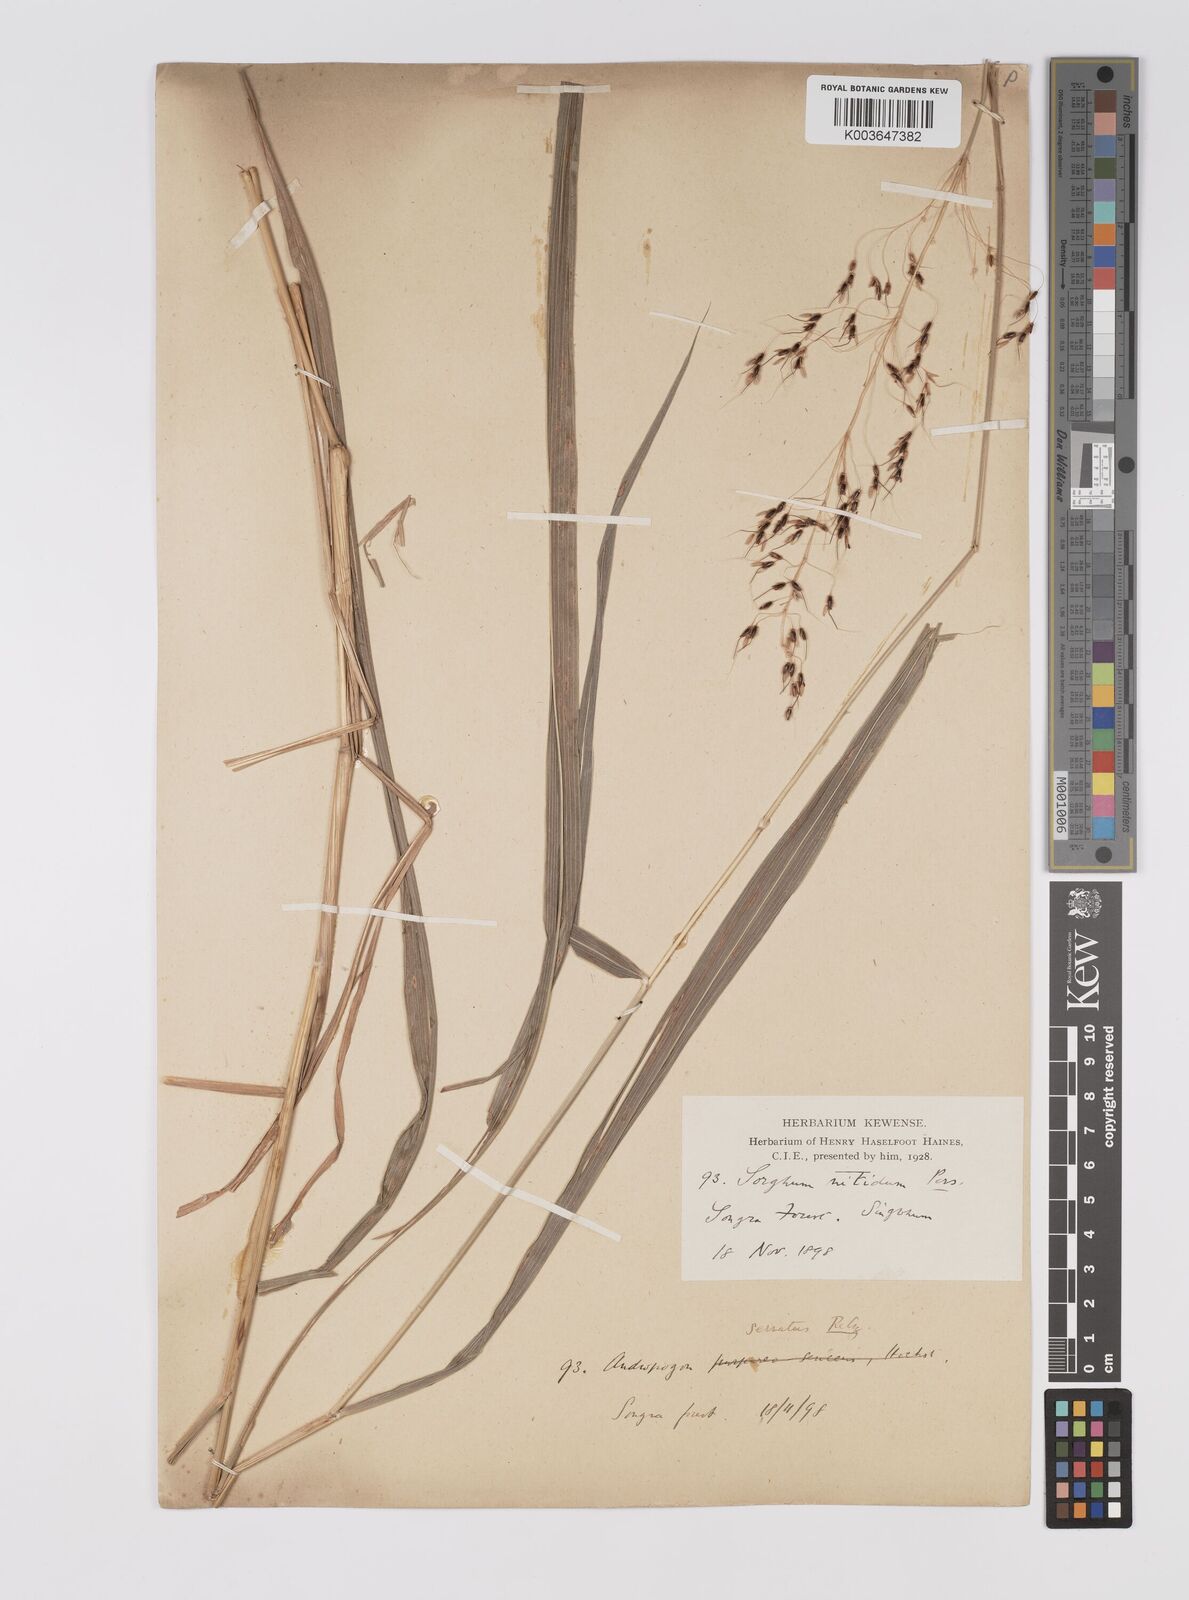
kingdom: Plantae
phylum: Tracheophyta
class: Liliopsida
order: Poales
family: Poaceae
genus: Sorghum
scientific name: Sorghum nitidum
